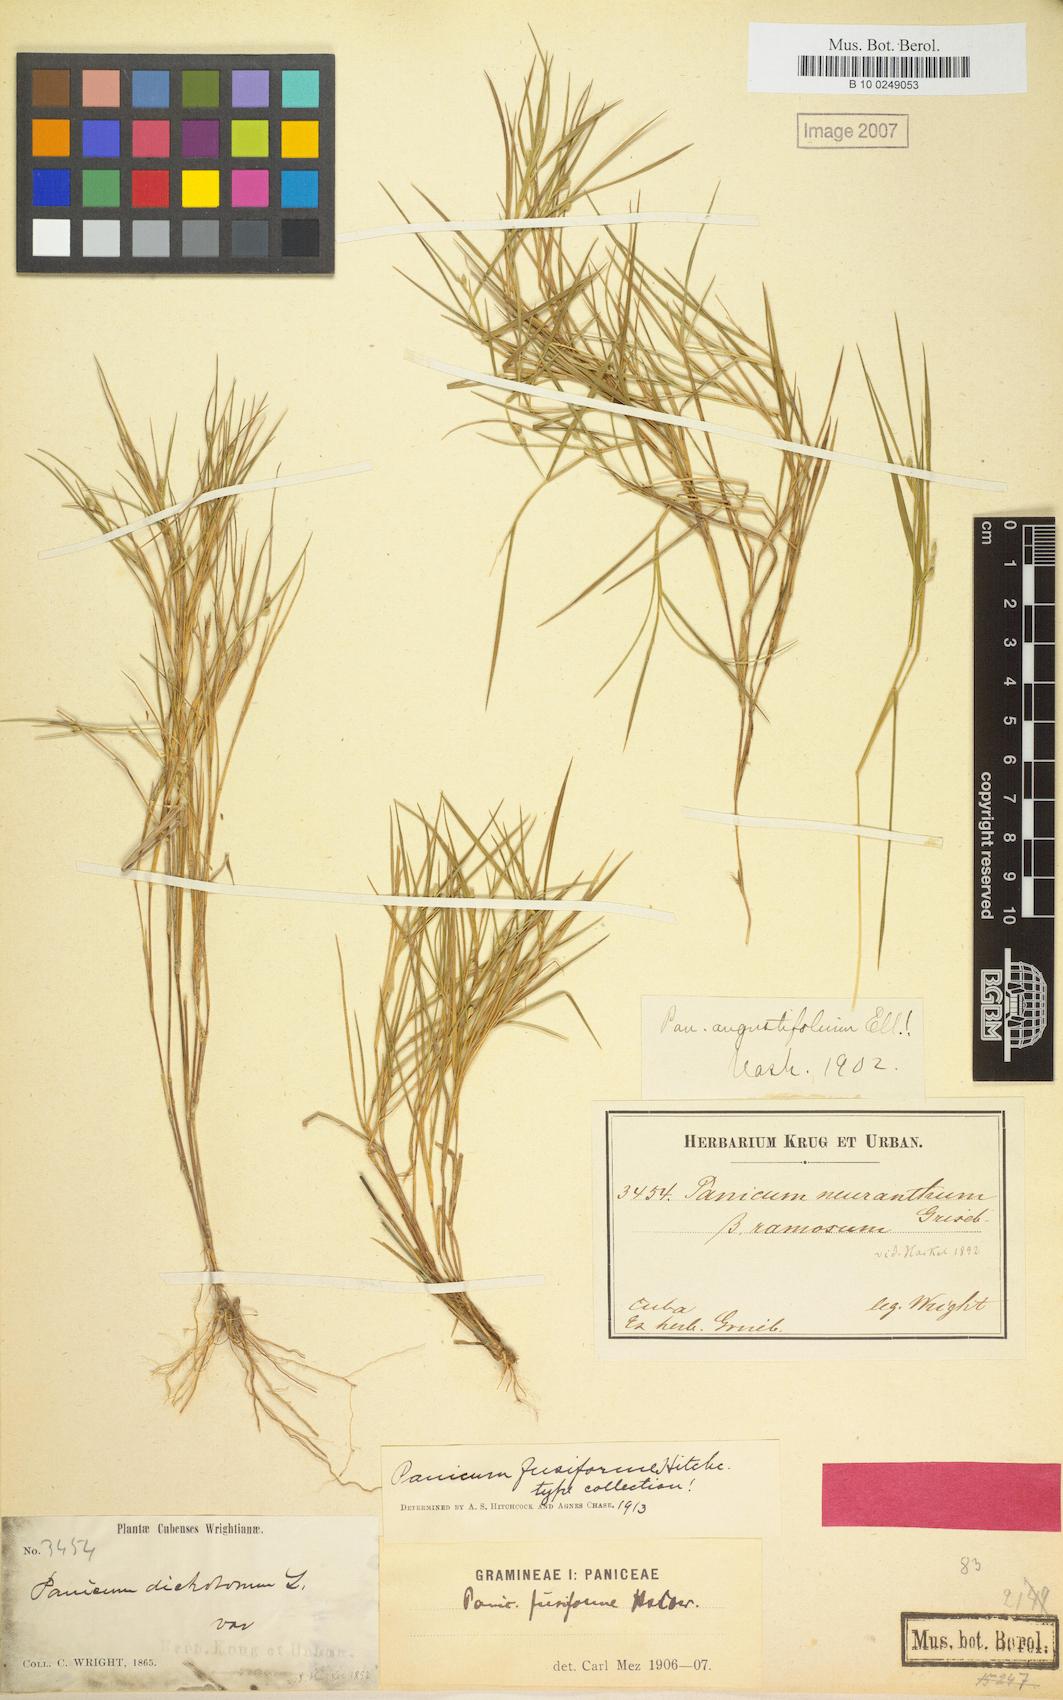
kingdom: Plantae
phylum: Tracheophyta
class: Liliopsida
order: Poales
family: Poaceae
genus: Dichanthelium
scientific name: Dichanthelium aciculare
